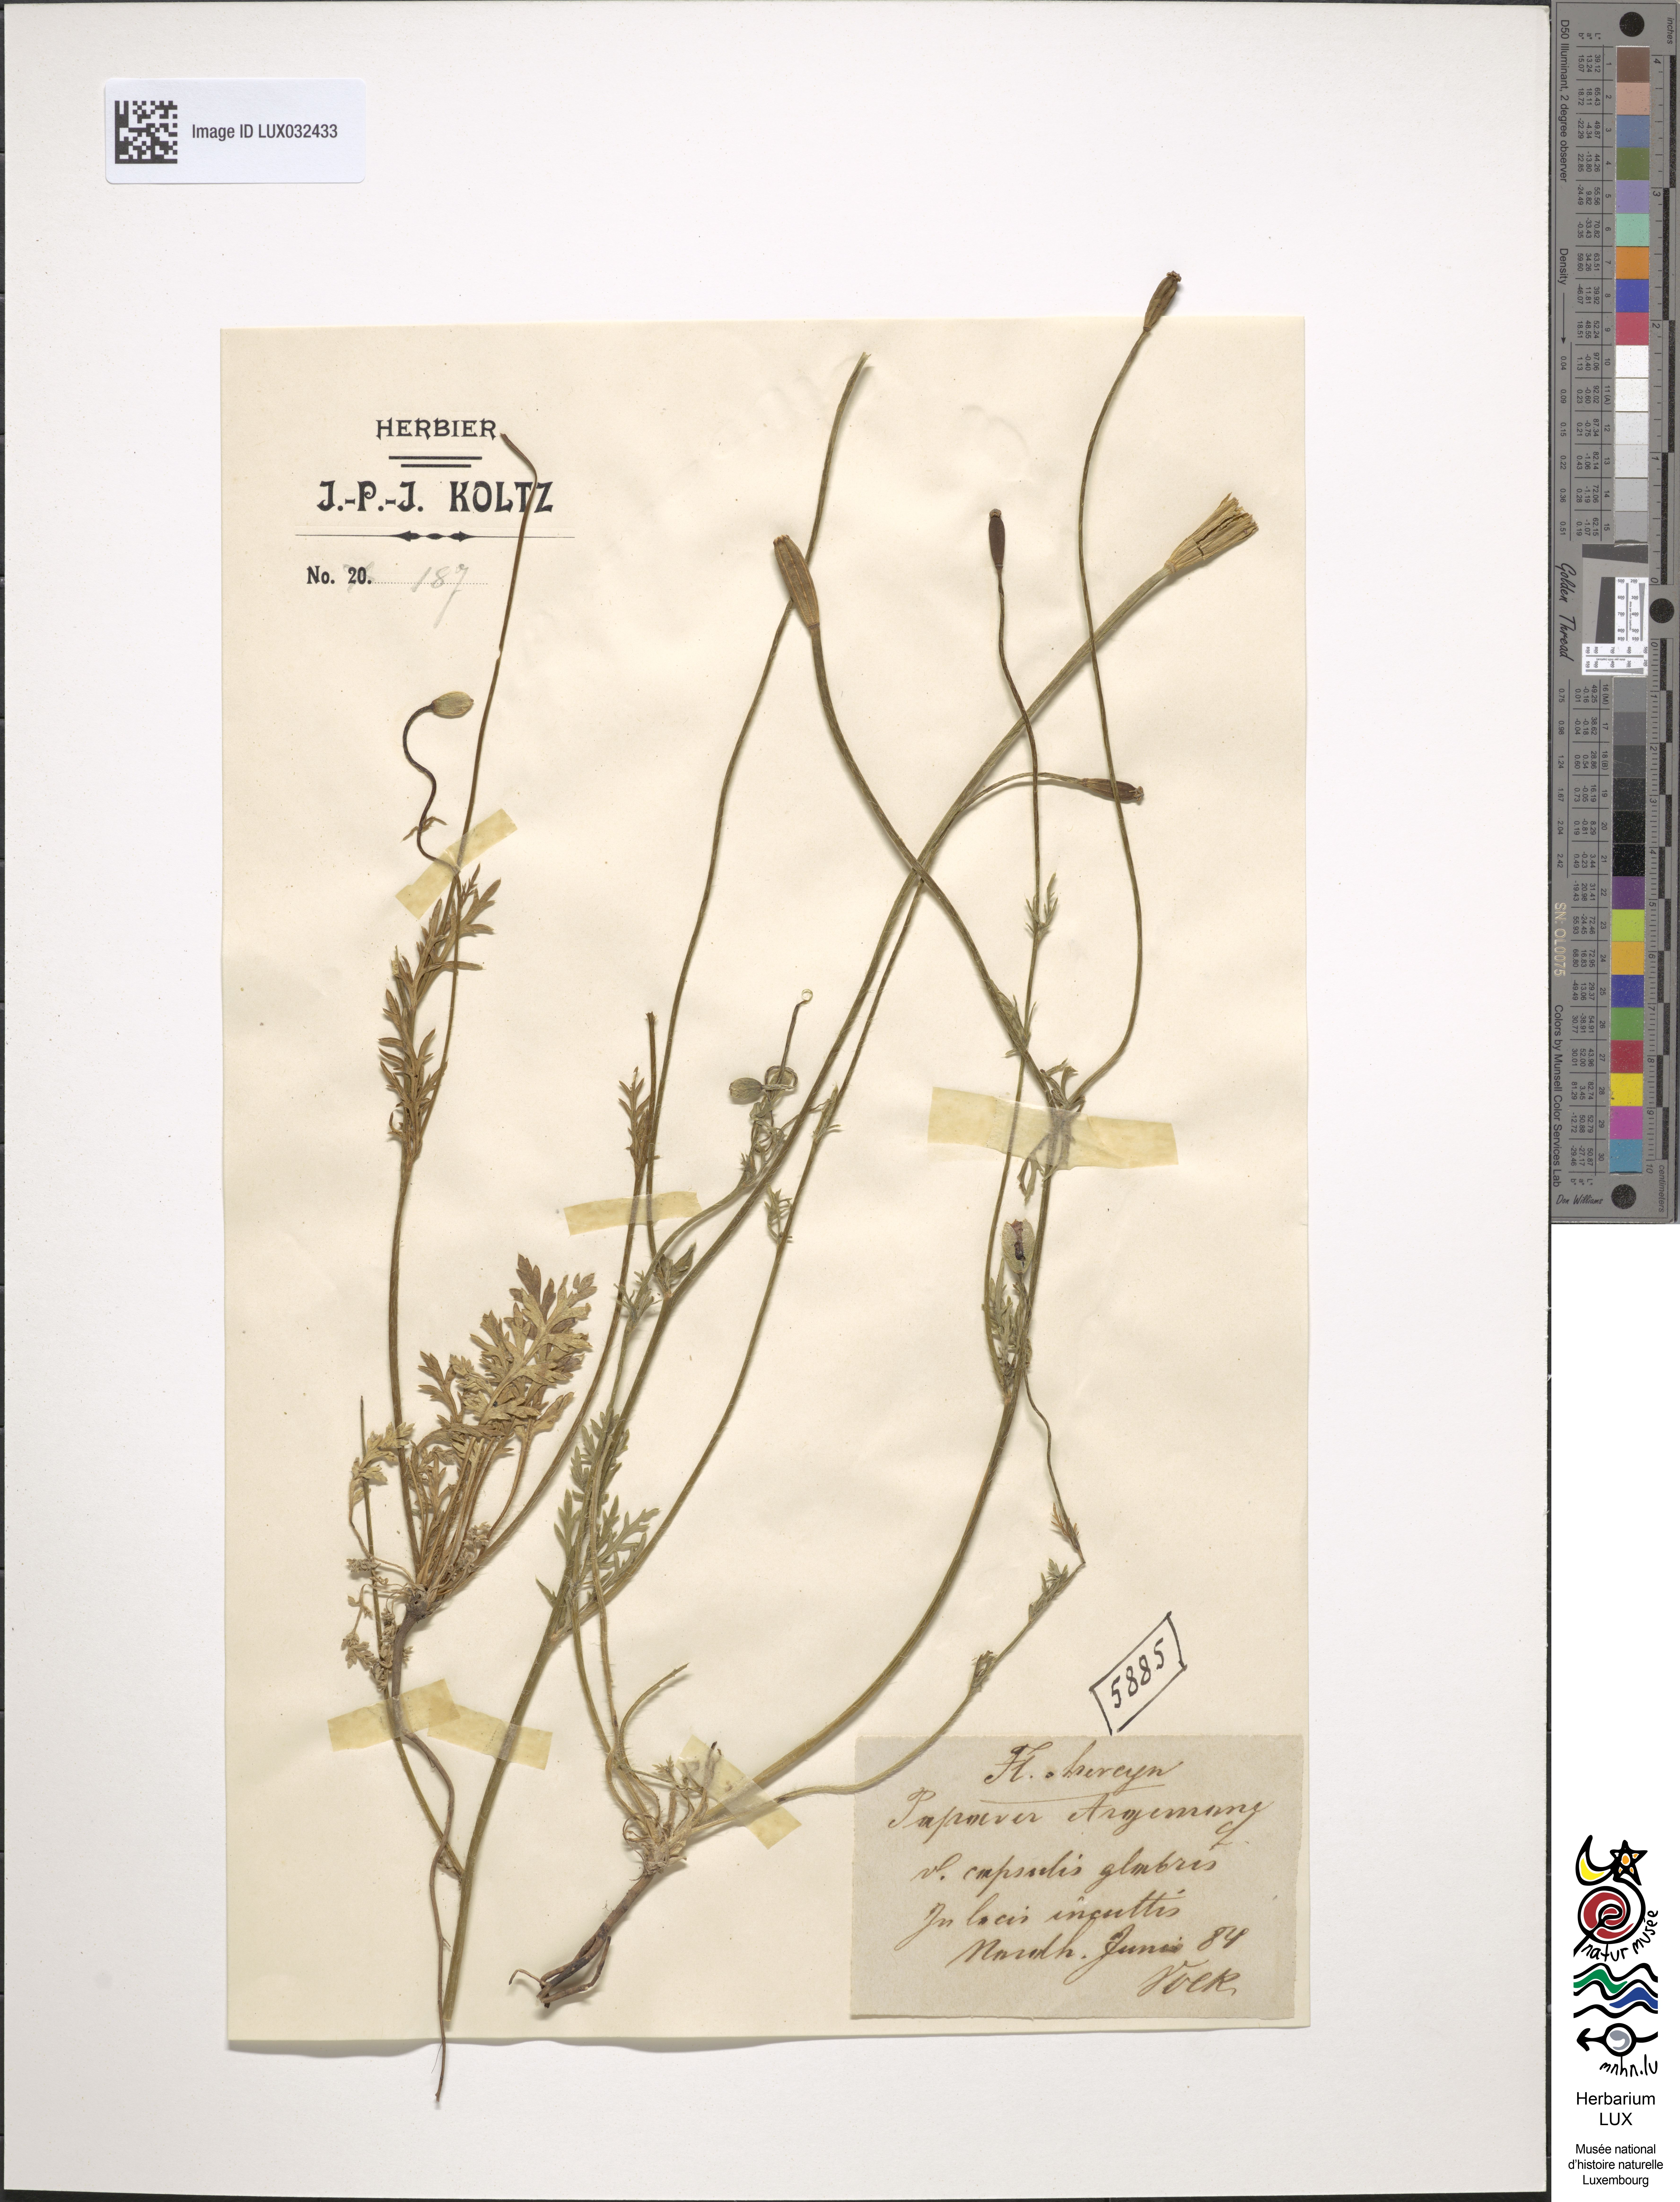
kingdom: Plantae
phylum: Tracheophyta
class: Magnoliopsida
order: Ranunculales
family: Papaveraceae
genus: Roemeria
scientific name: Roemeria argemone
